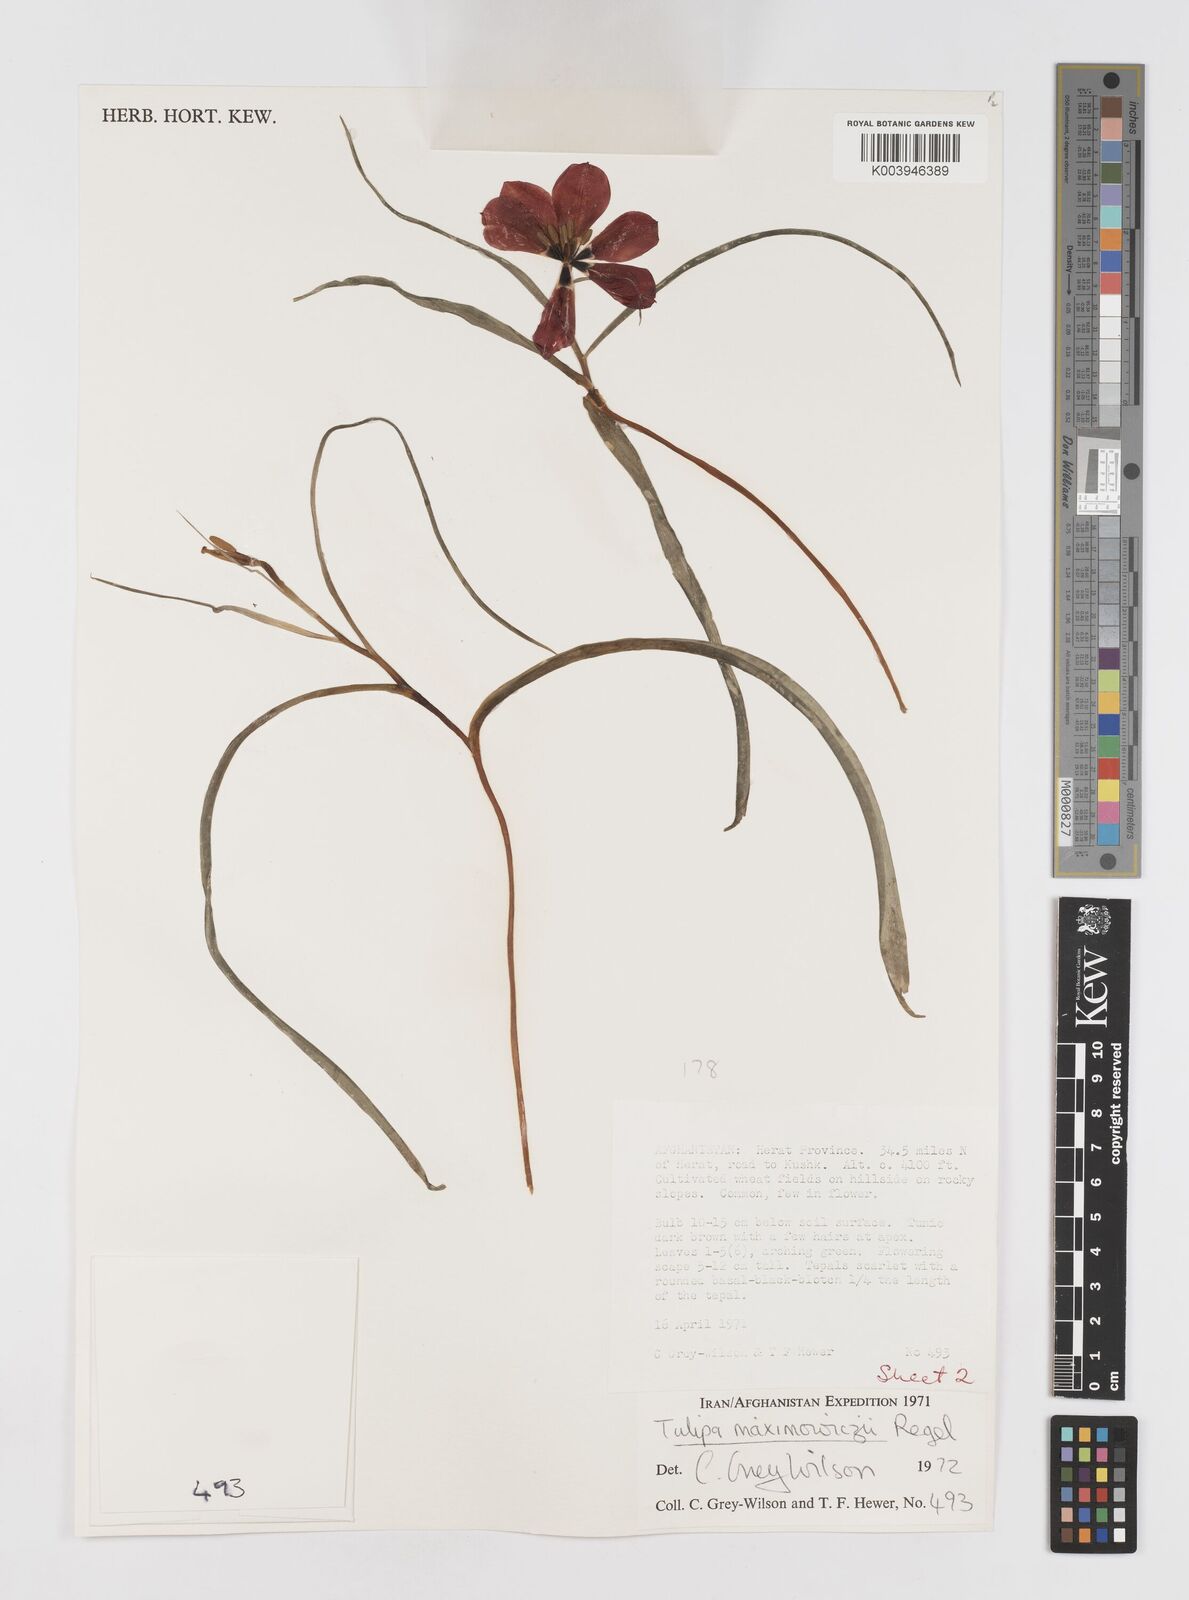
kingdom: Plantae
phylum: Tracheophyta
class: Liliopsida
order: Liliales
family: Liliaceae
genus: Tulipa
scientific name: Tulipa linifolia
